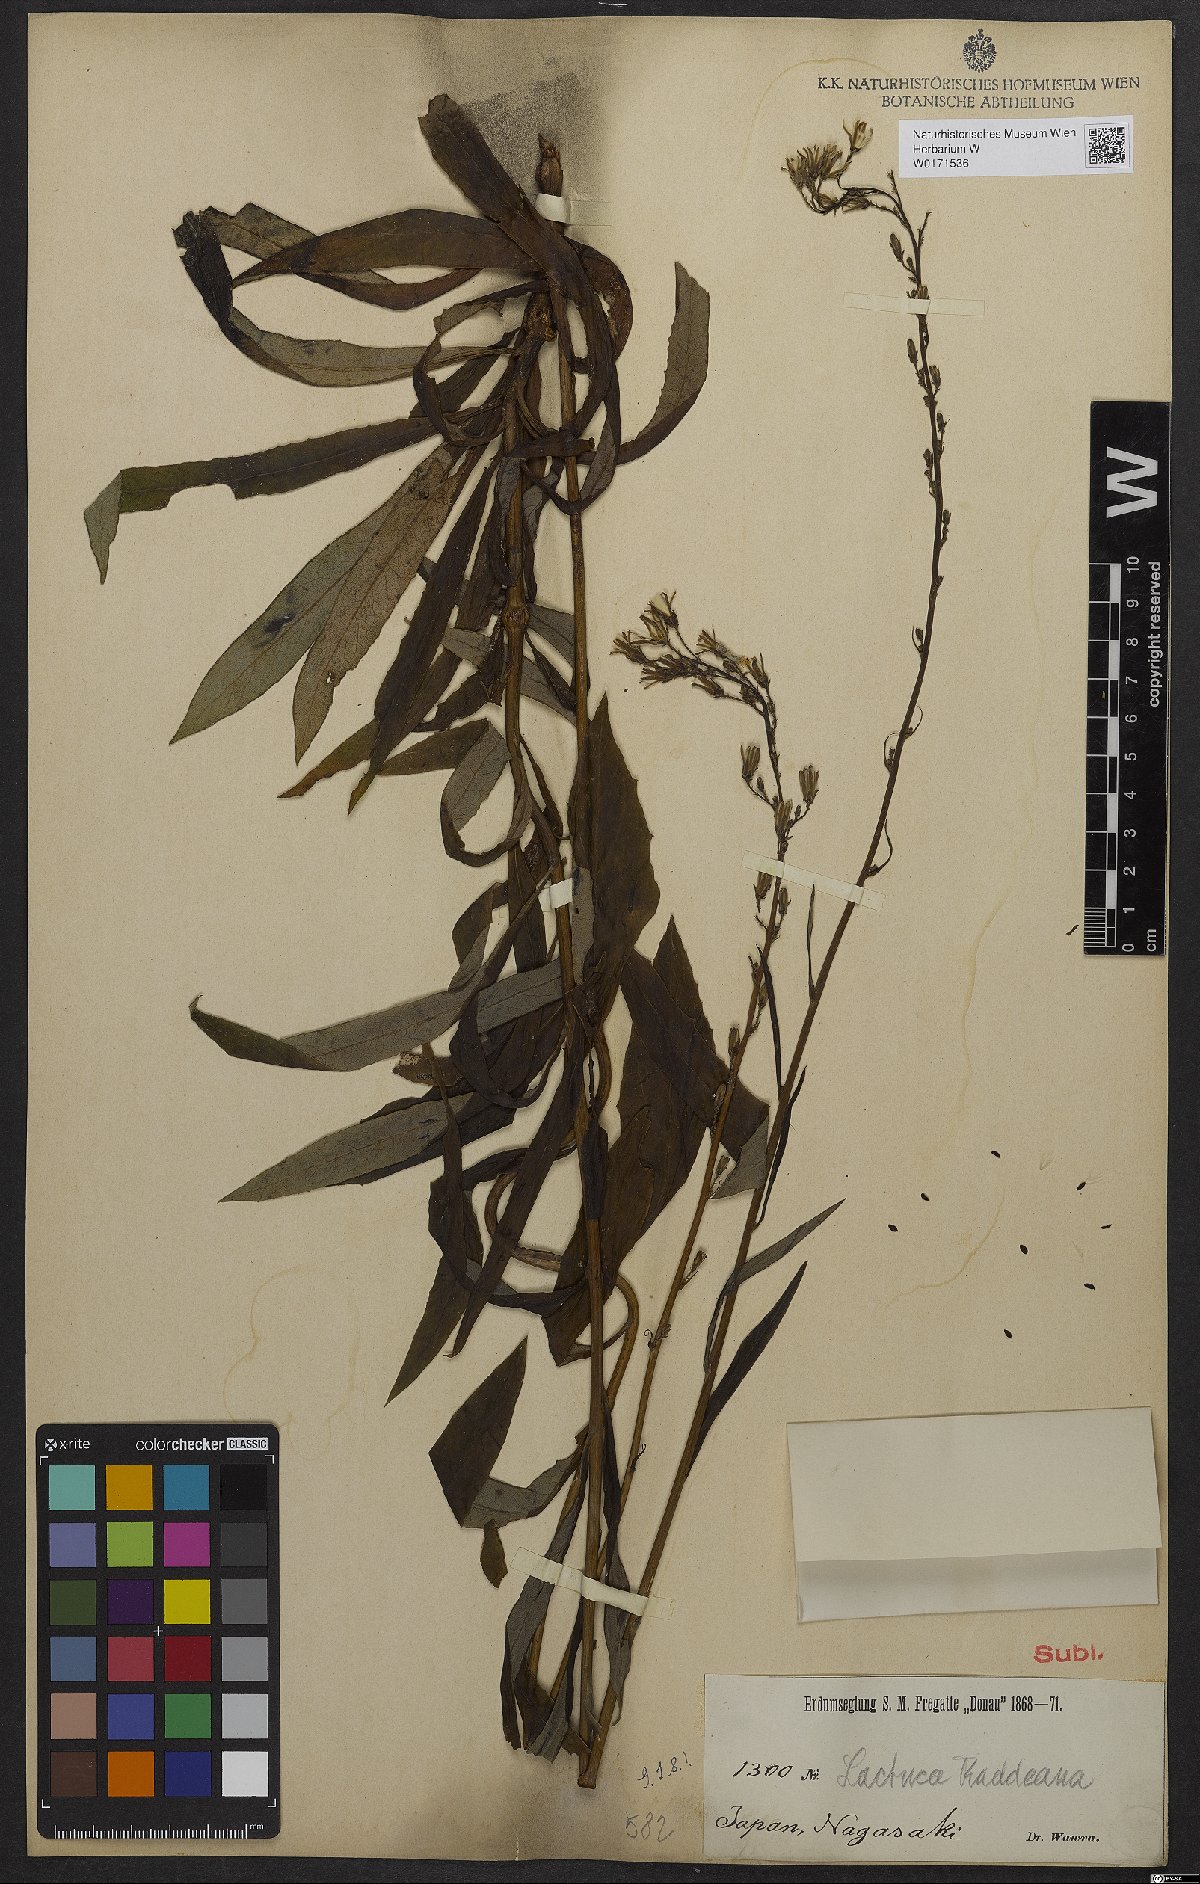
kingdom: Plantae
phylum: Tracheophyta
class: Magnoliopsida
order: Asterales
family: Asteraceae
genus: Lactuca
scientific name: Lactuca raddeana
